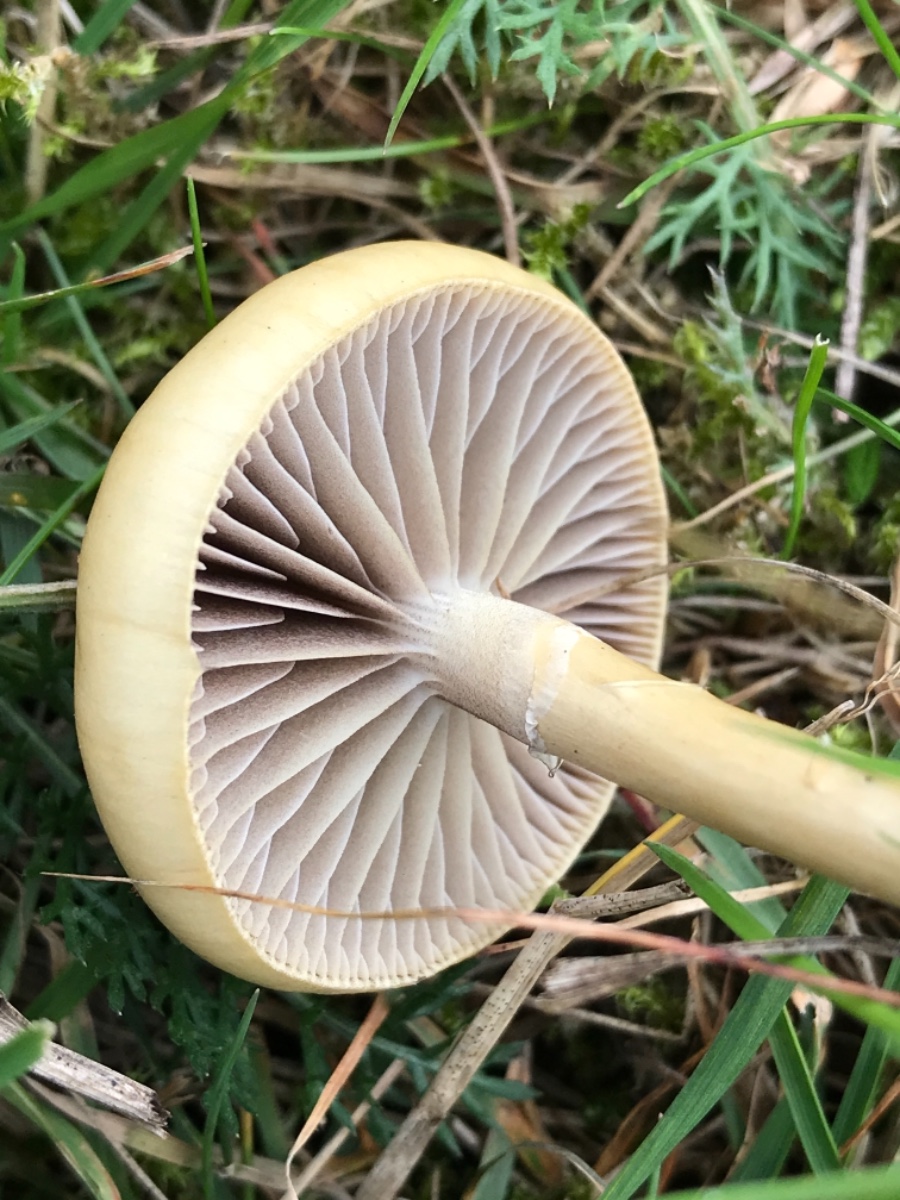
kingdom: Fungi
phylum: Basidiomycota
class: Agaricomycetes
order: Agaricales
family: Strophariaceae
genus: Protostropharia
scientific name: Protostropharia semiglobata
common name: halvkugleformet bredblad
